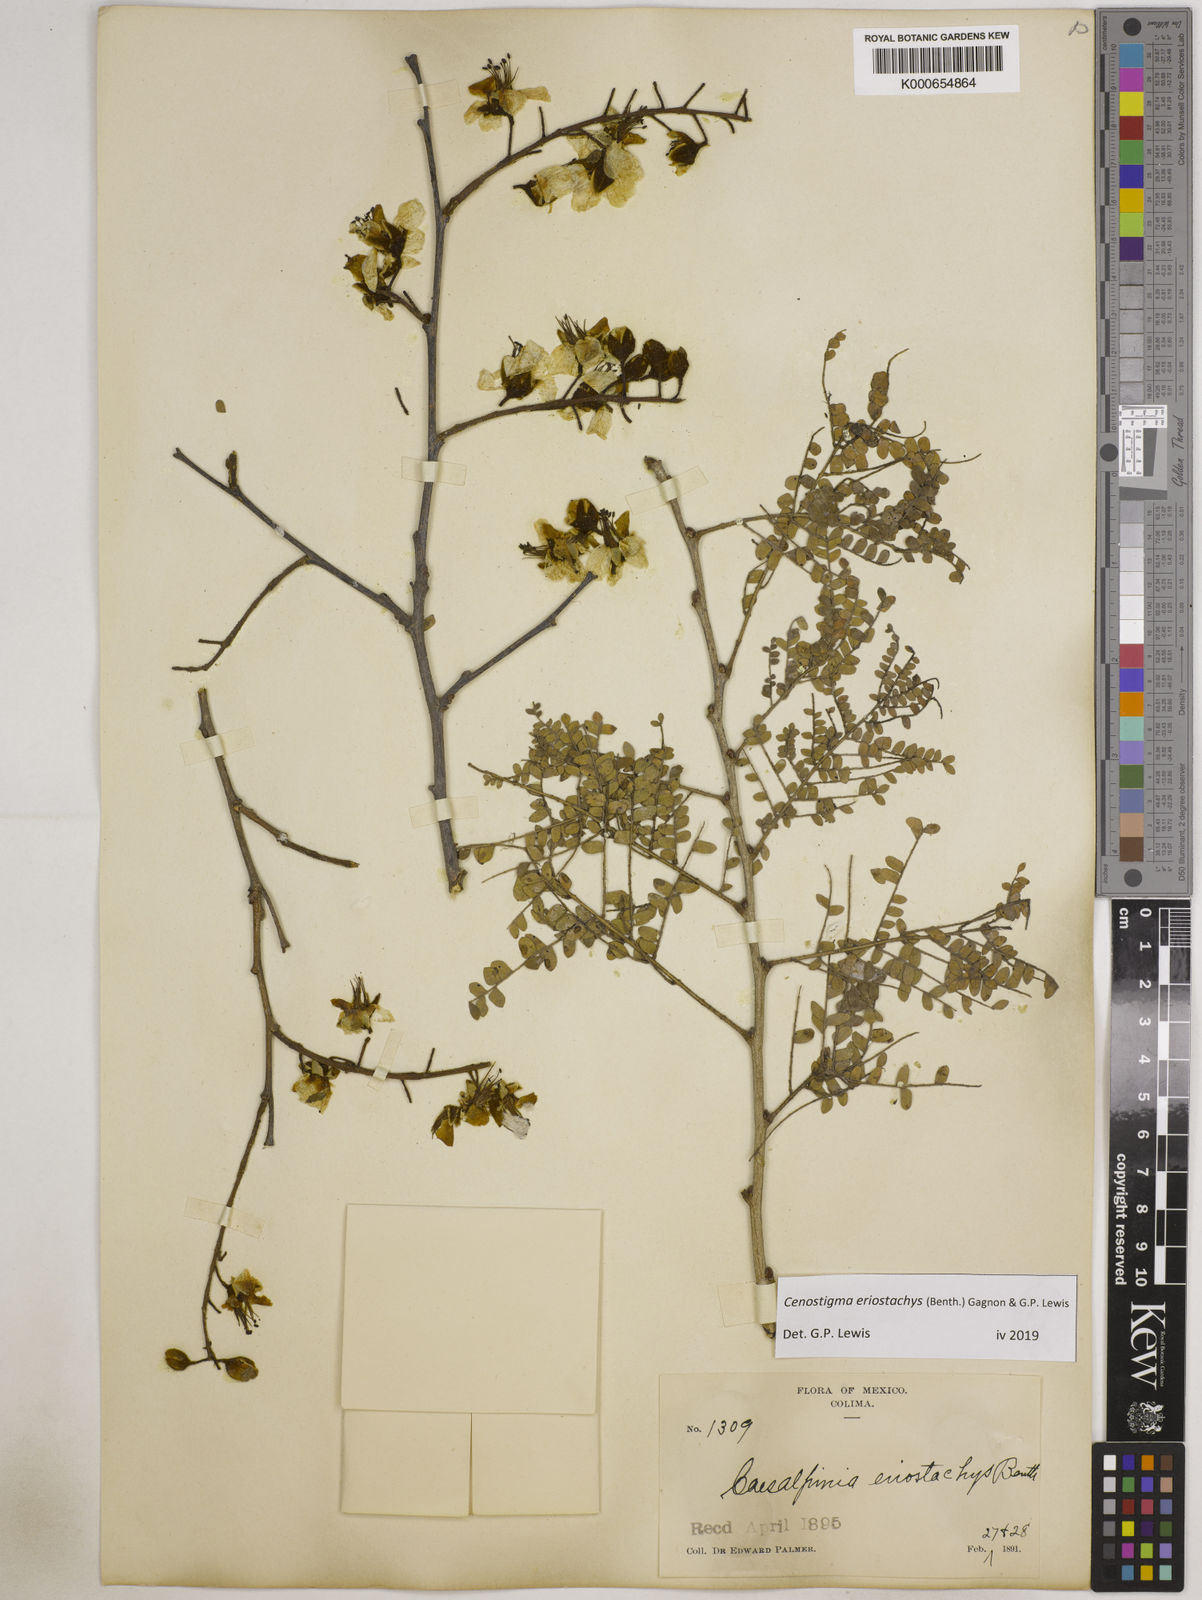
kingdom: Plantae
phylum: Tracheophyta
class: Magnoliopsida
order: Fabales
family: Fabaceae
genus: Cenostigma
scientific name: Cenostigma eriostachys
